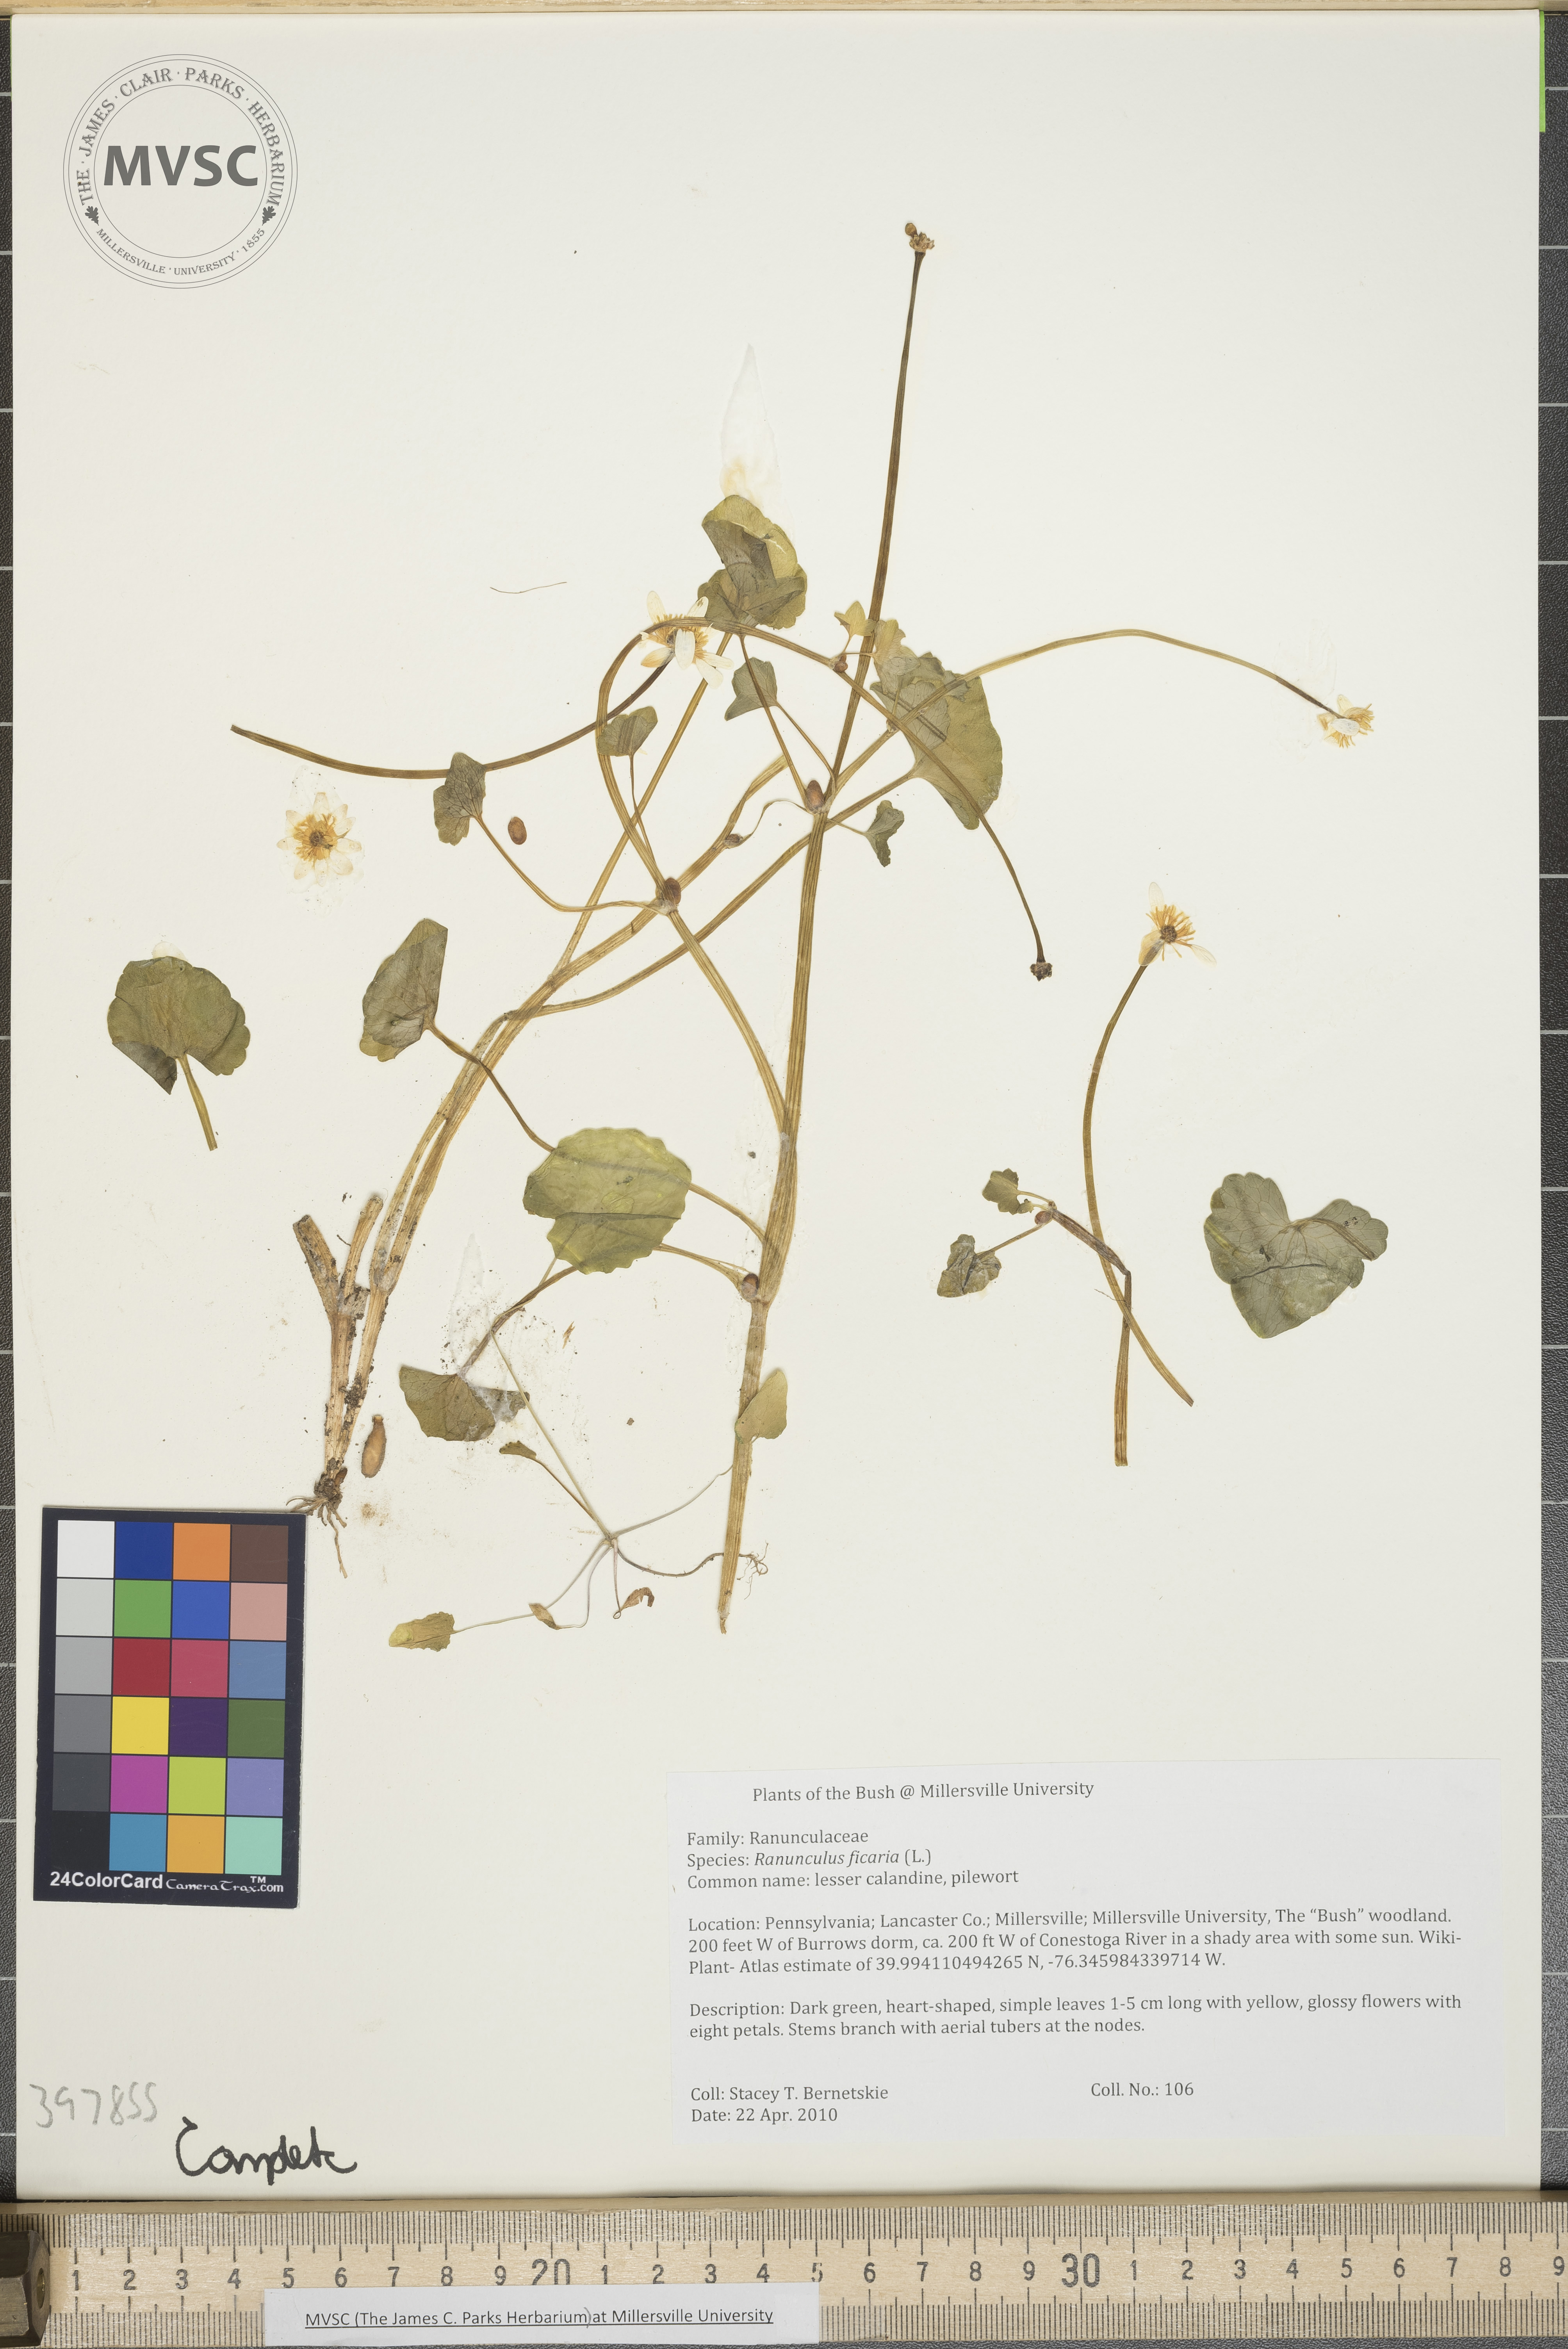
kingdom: Plantae
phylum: Tracheophyta
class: Magnoliopsida
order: Ranunculales
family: Ranunculaceae
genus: Ranunculus
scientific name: Ranunculus ficaria
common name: Lesser celandine
